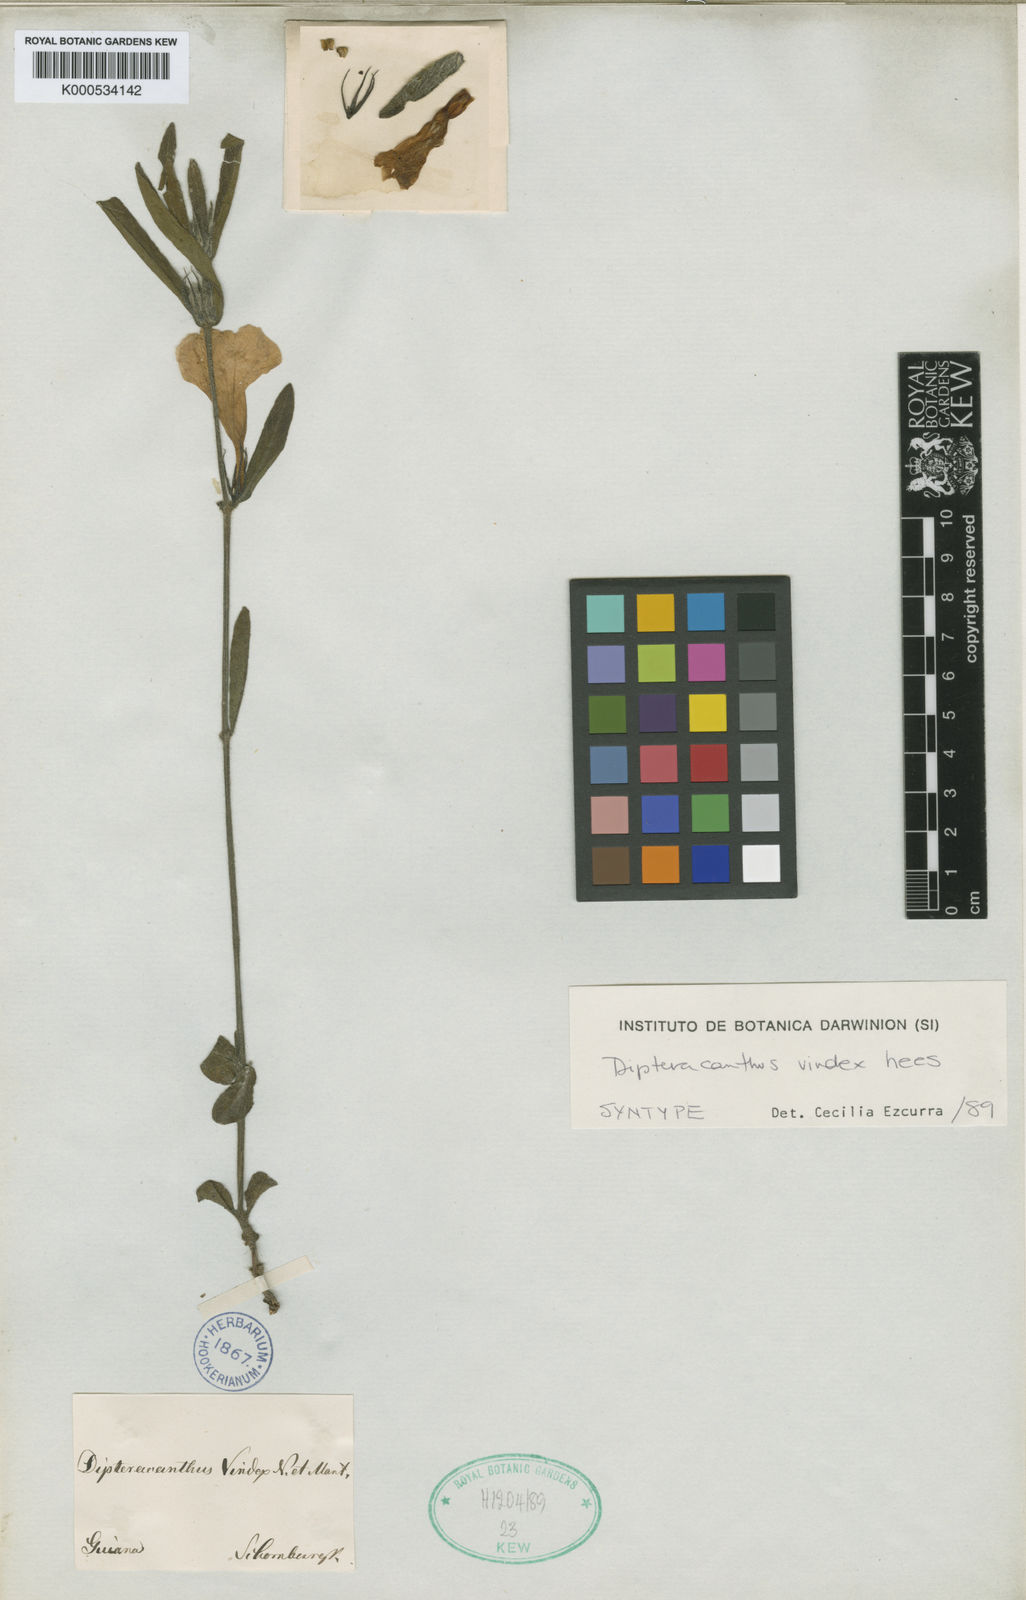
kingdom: Plantae
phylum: Tracheophyta
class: Magnoliopsida
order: Lamiales
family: Acanthaceae
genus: Ruellia
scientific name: Ruellia geminiflora
